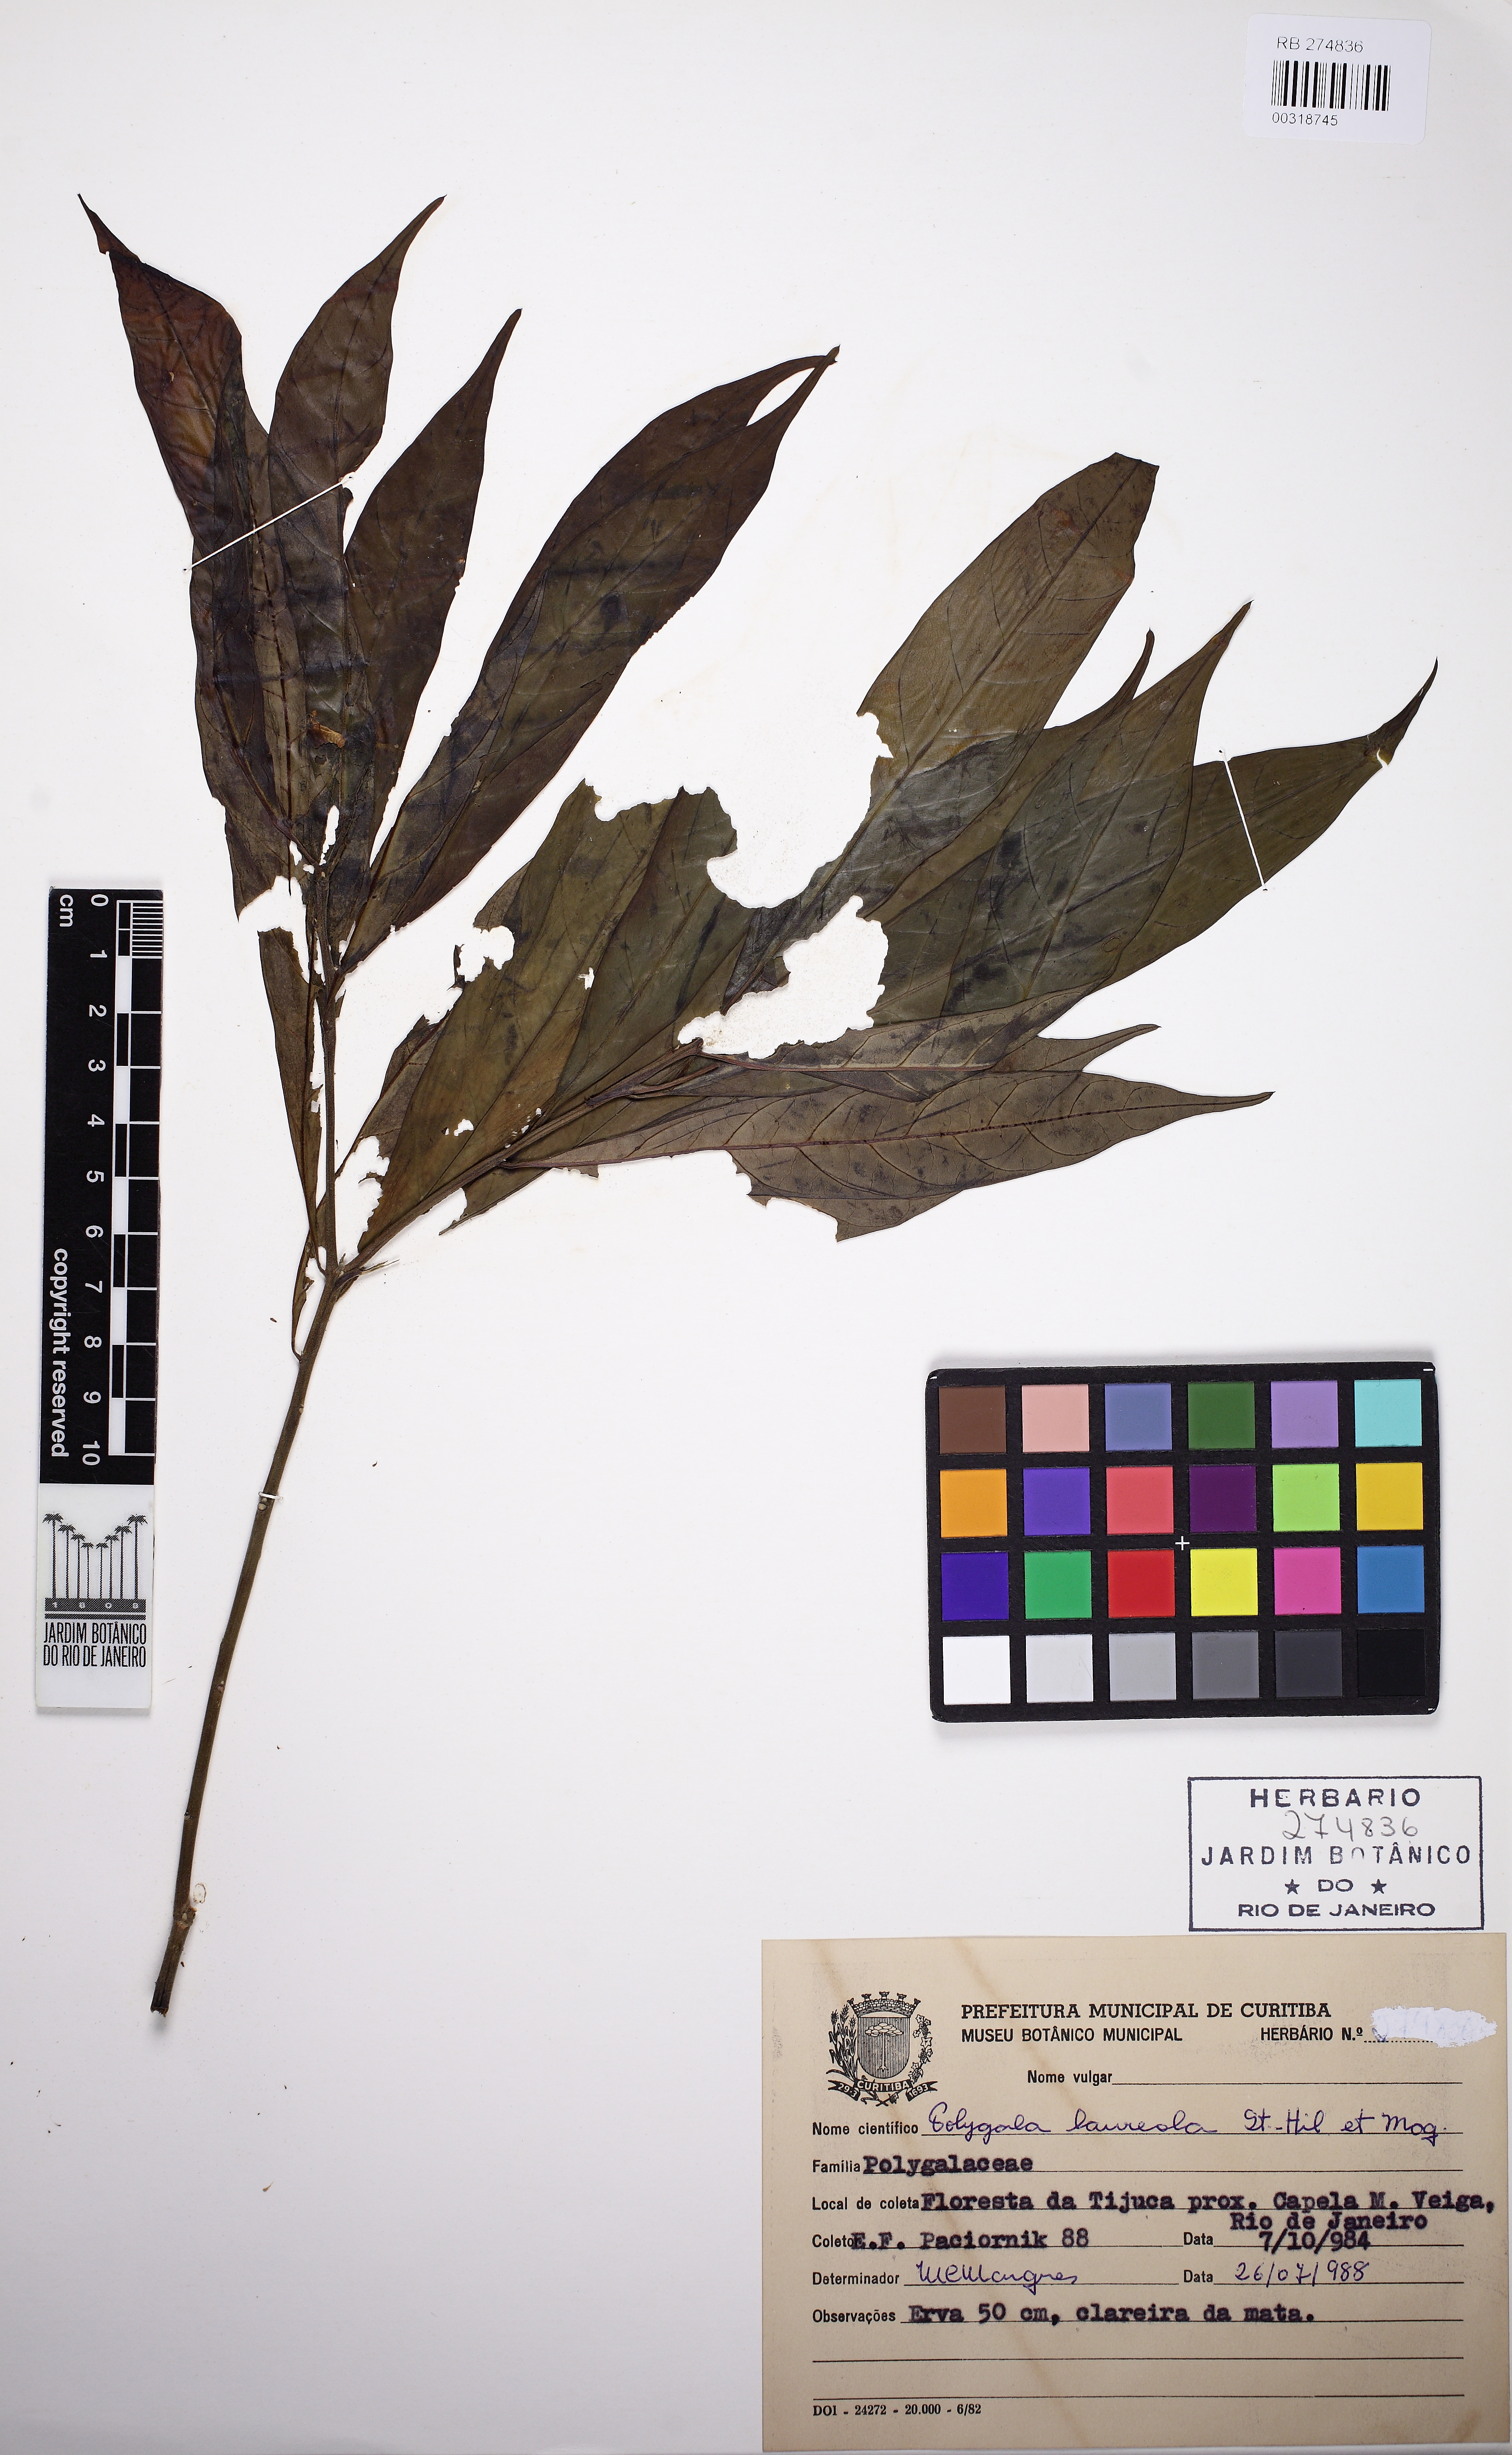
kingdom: Plantae
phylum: Tracheophyta
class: Magnoliopsida
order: Fabales
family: Polygalaceae
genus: Caamembeca
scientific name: Caamembeca salicifolia
